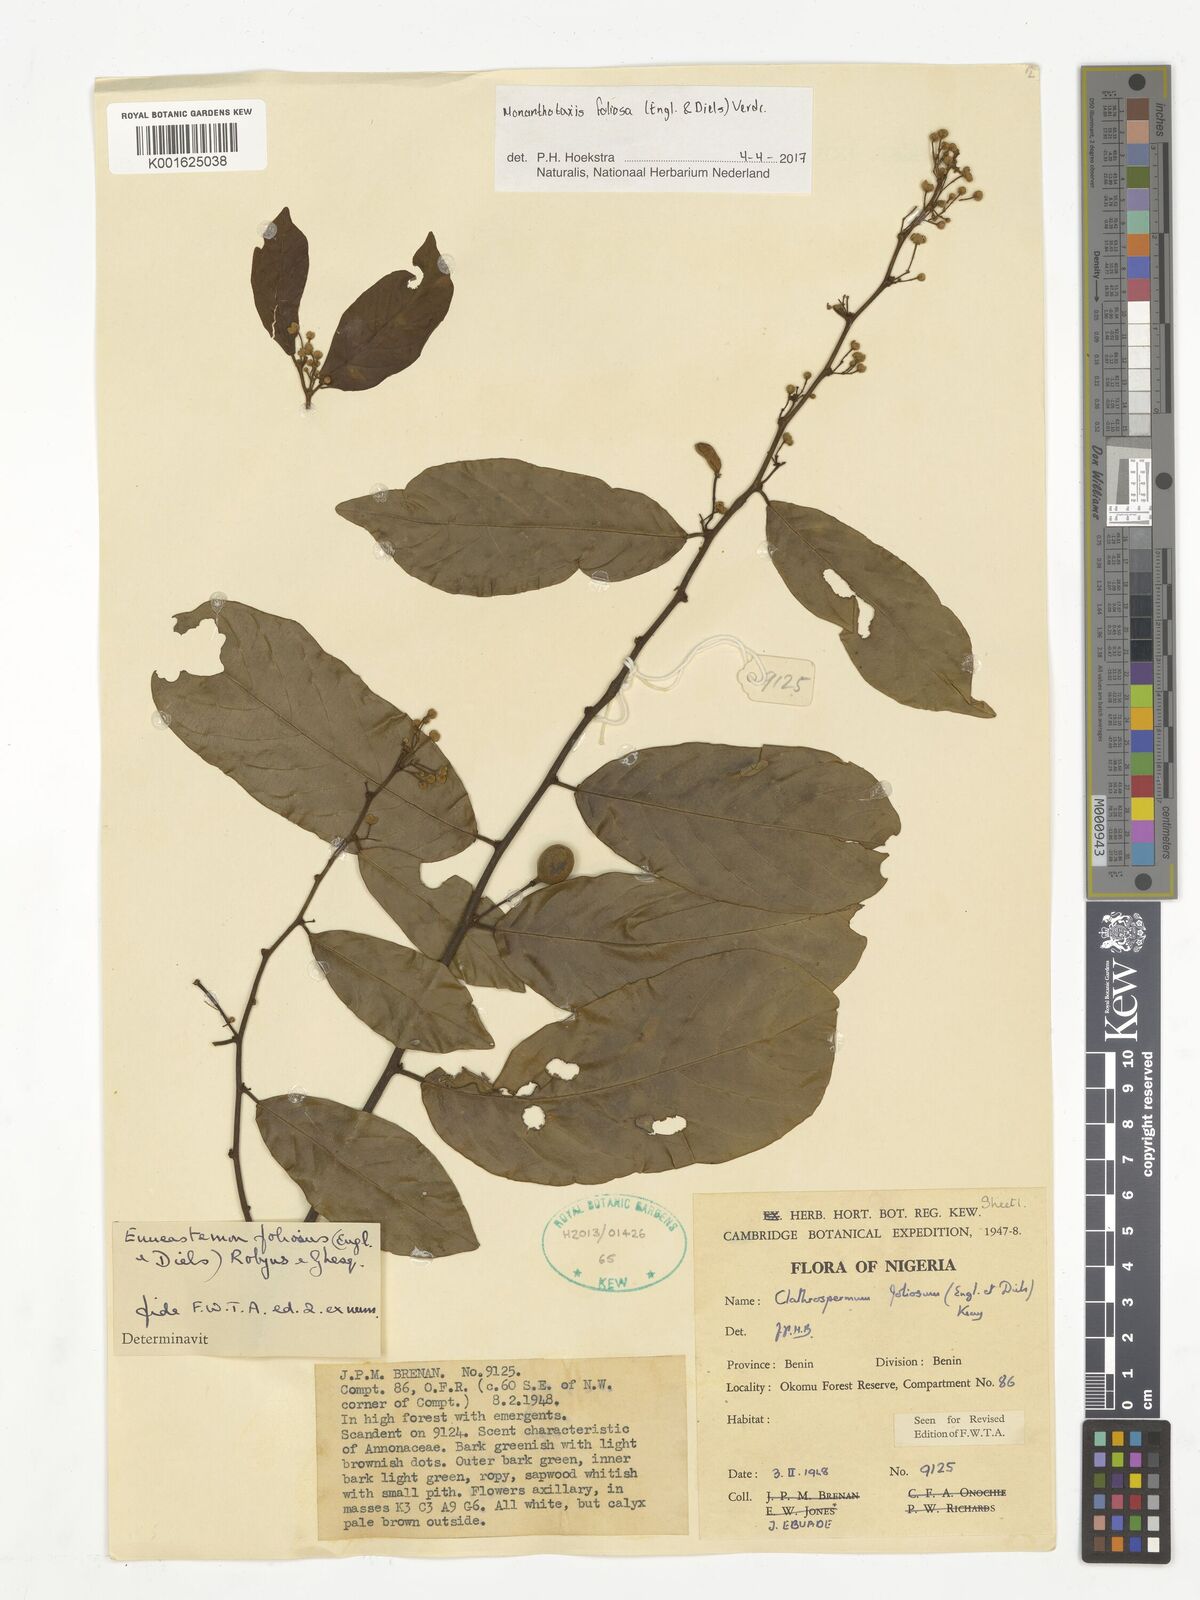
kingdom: Plantae
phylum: Tracheophyta
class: Magnoliopsida
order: Magnoliales
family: Annonaceae
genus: Monanthotaxis
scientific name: Monanthotaxis foliosa
